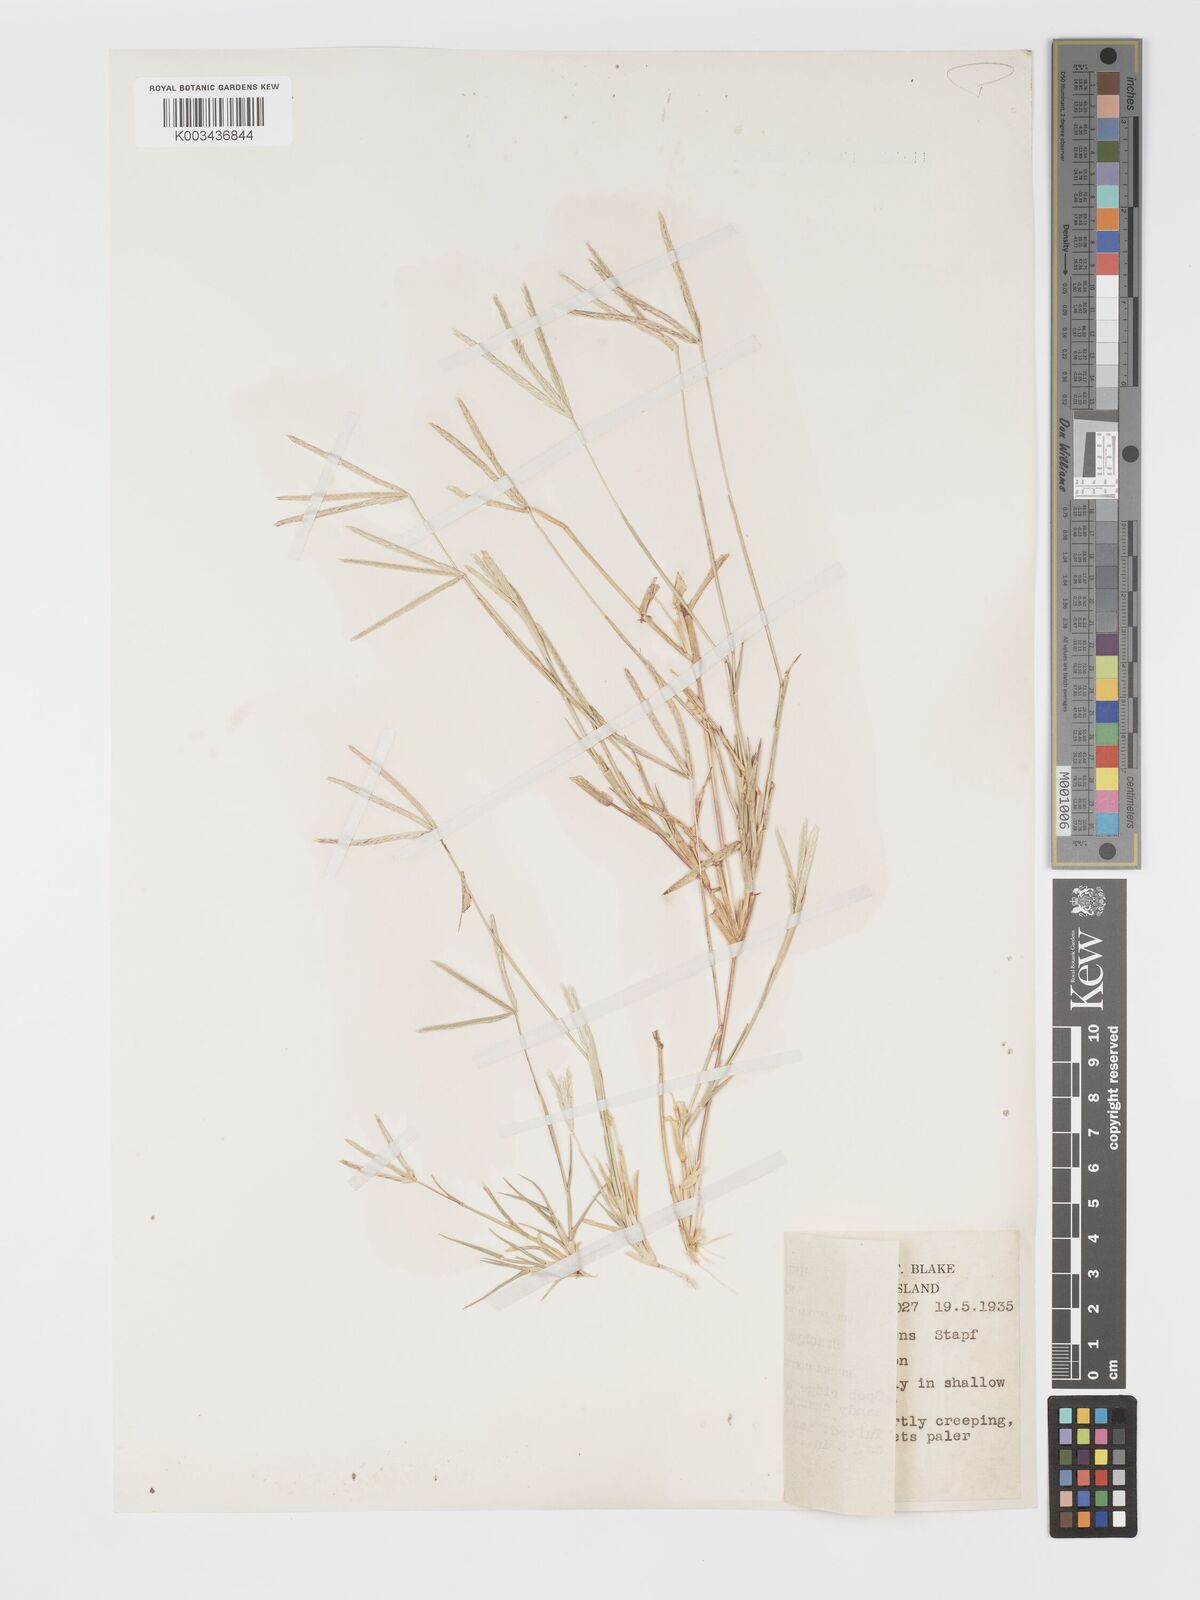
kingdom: Plantae
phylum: Tracheophyta
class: Liliopsida
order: Poales
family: Poaceae
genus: Cynodon
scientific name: Cynodon convergens
